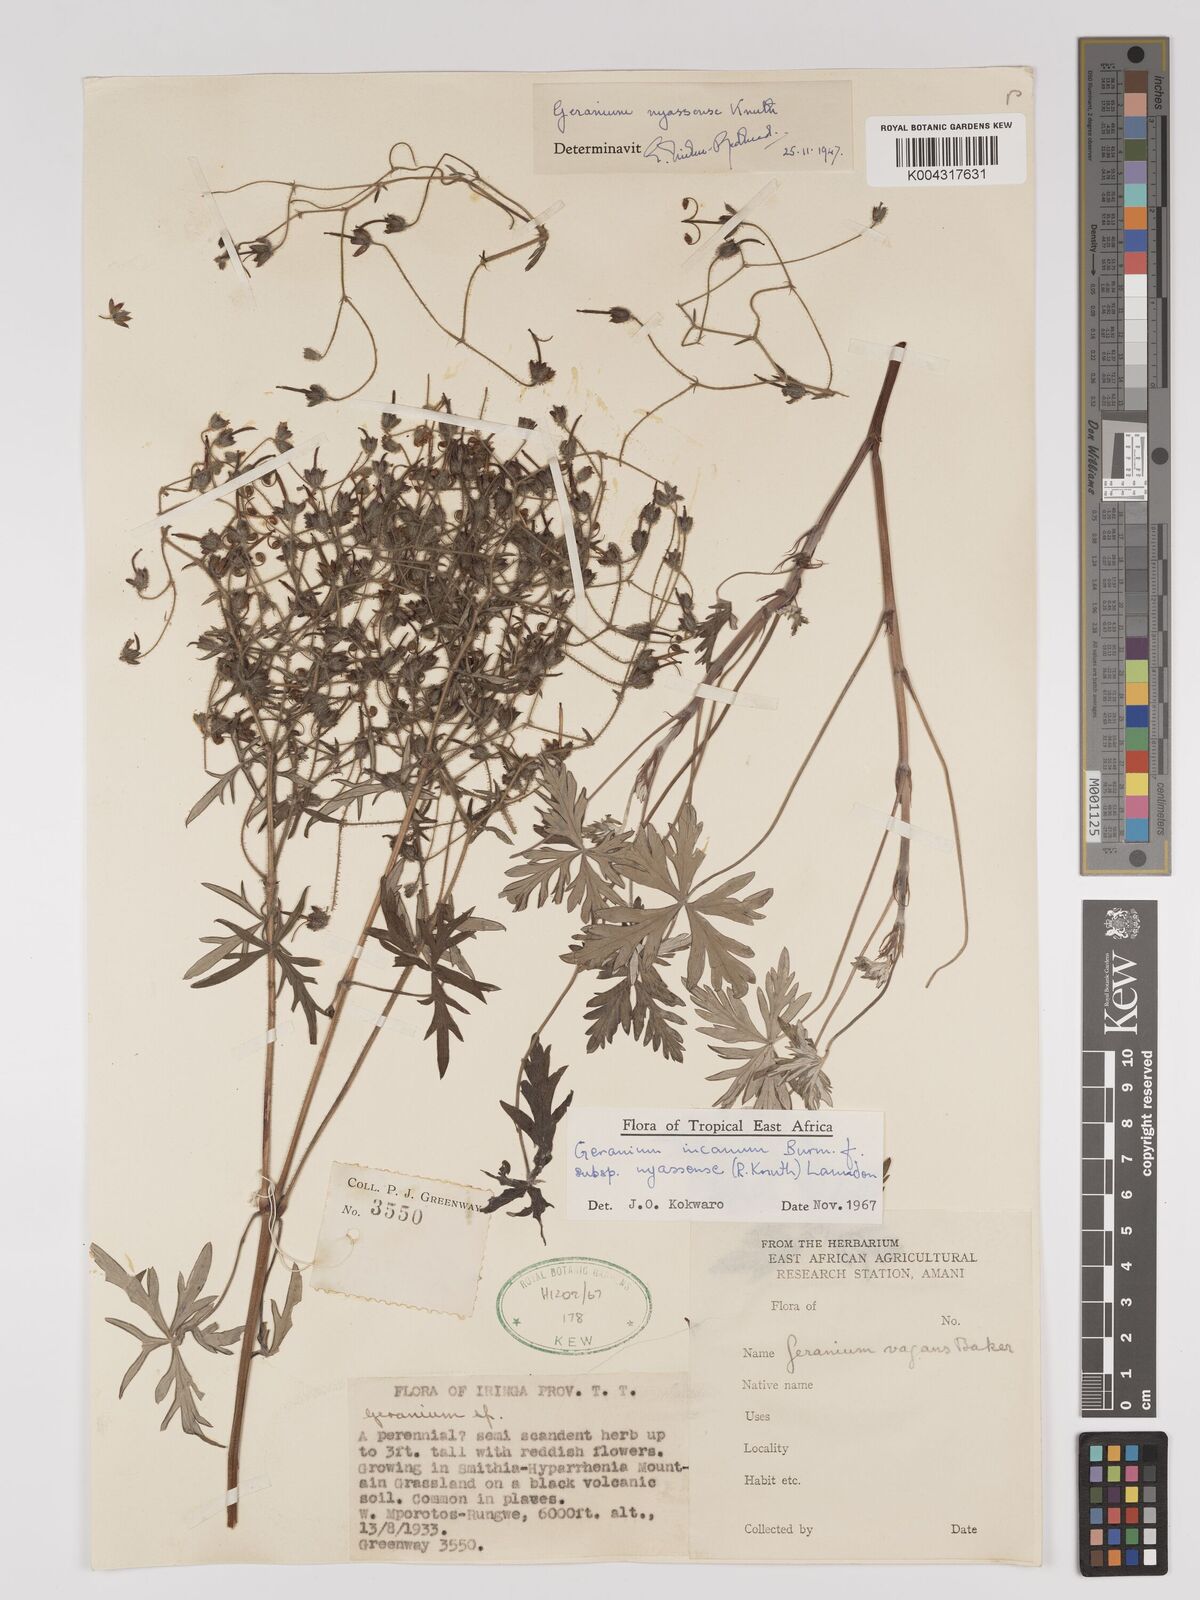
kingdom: Plantae
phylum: Tracheophyta
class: Magnoliopsida
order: Geraniales
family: Geraniaceae
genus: Geranium
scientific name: Geranium incanum
